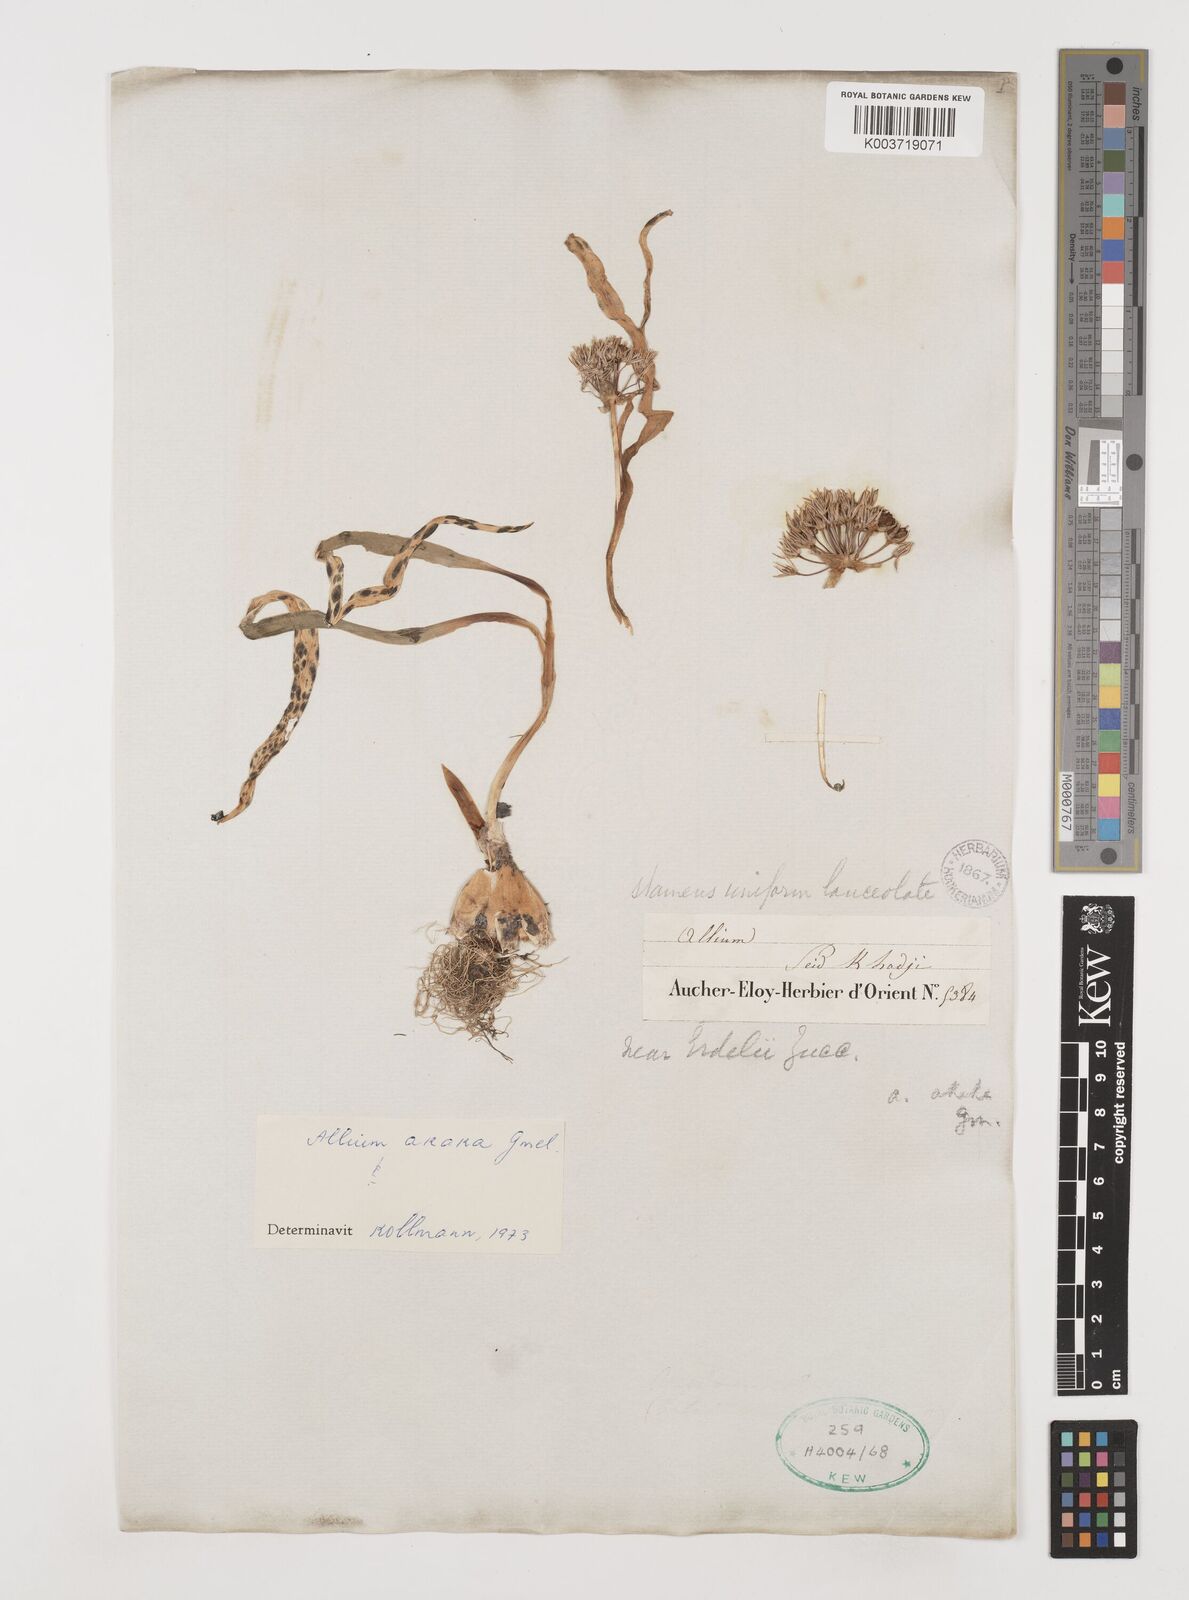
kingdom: Plantae
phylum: Tracheophyta
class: Liliopsida
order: Asparagales
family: Amaryllidaceae
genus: Allium
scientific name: Allium akaka
